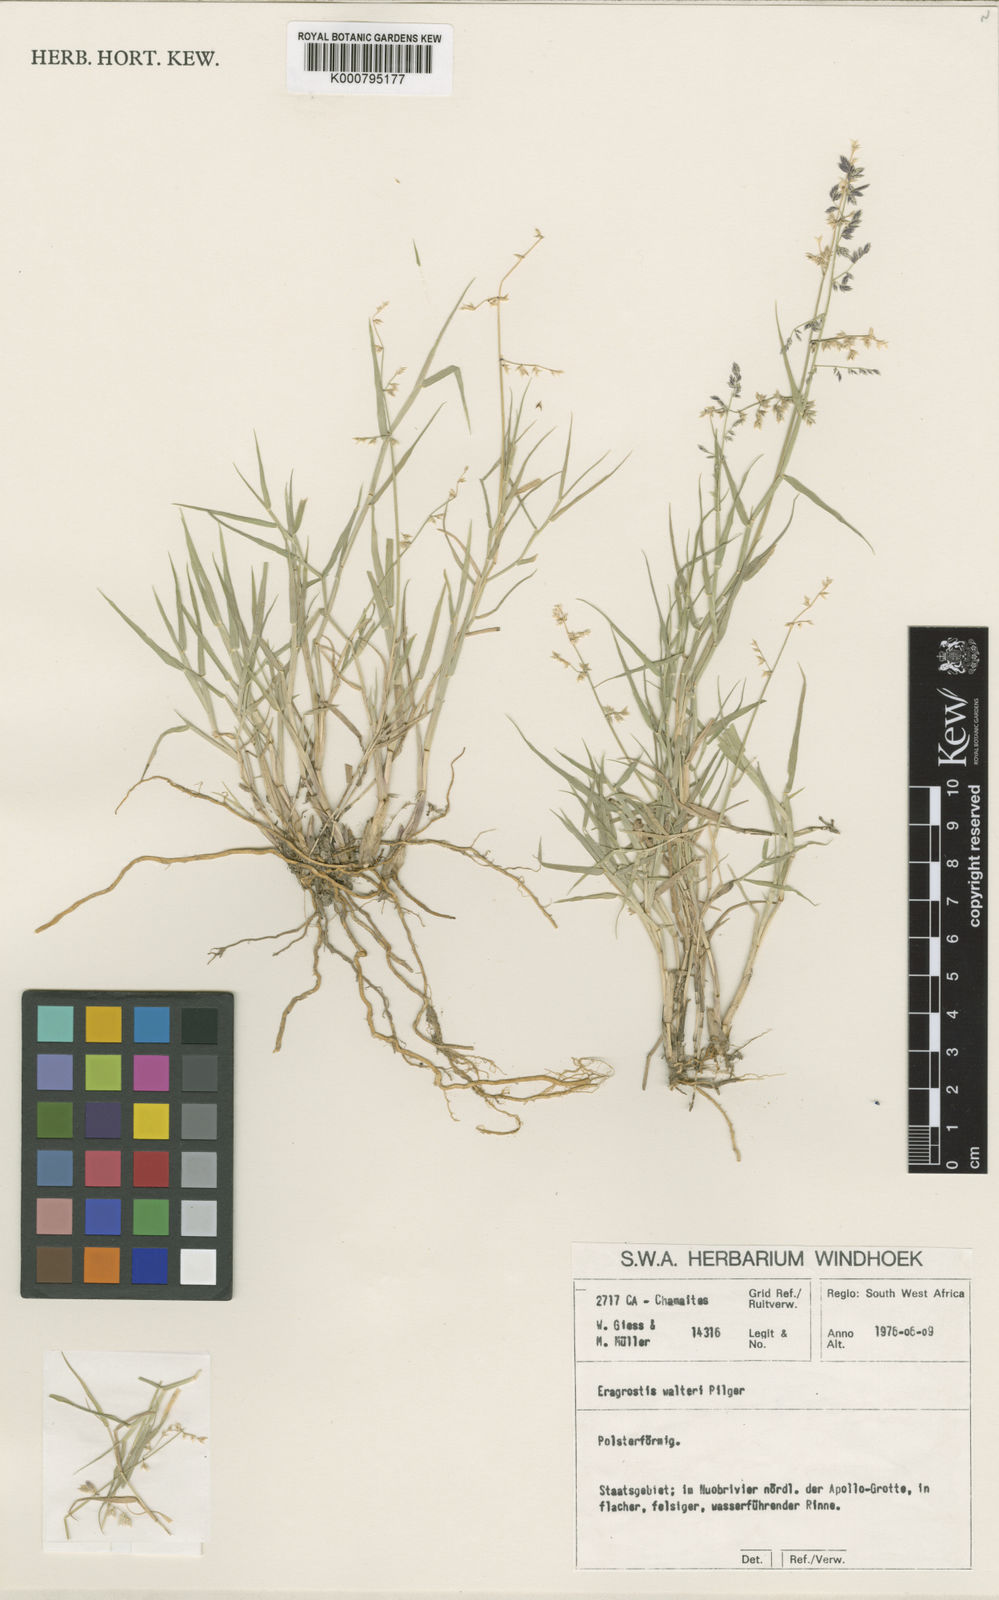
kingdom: Plantae
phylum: Tracheophyta
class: Liliopsida
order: Poales
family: Poaceae
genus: Pratochloa
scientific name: Pratochloa walteri
